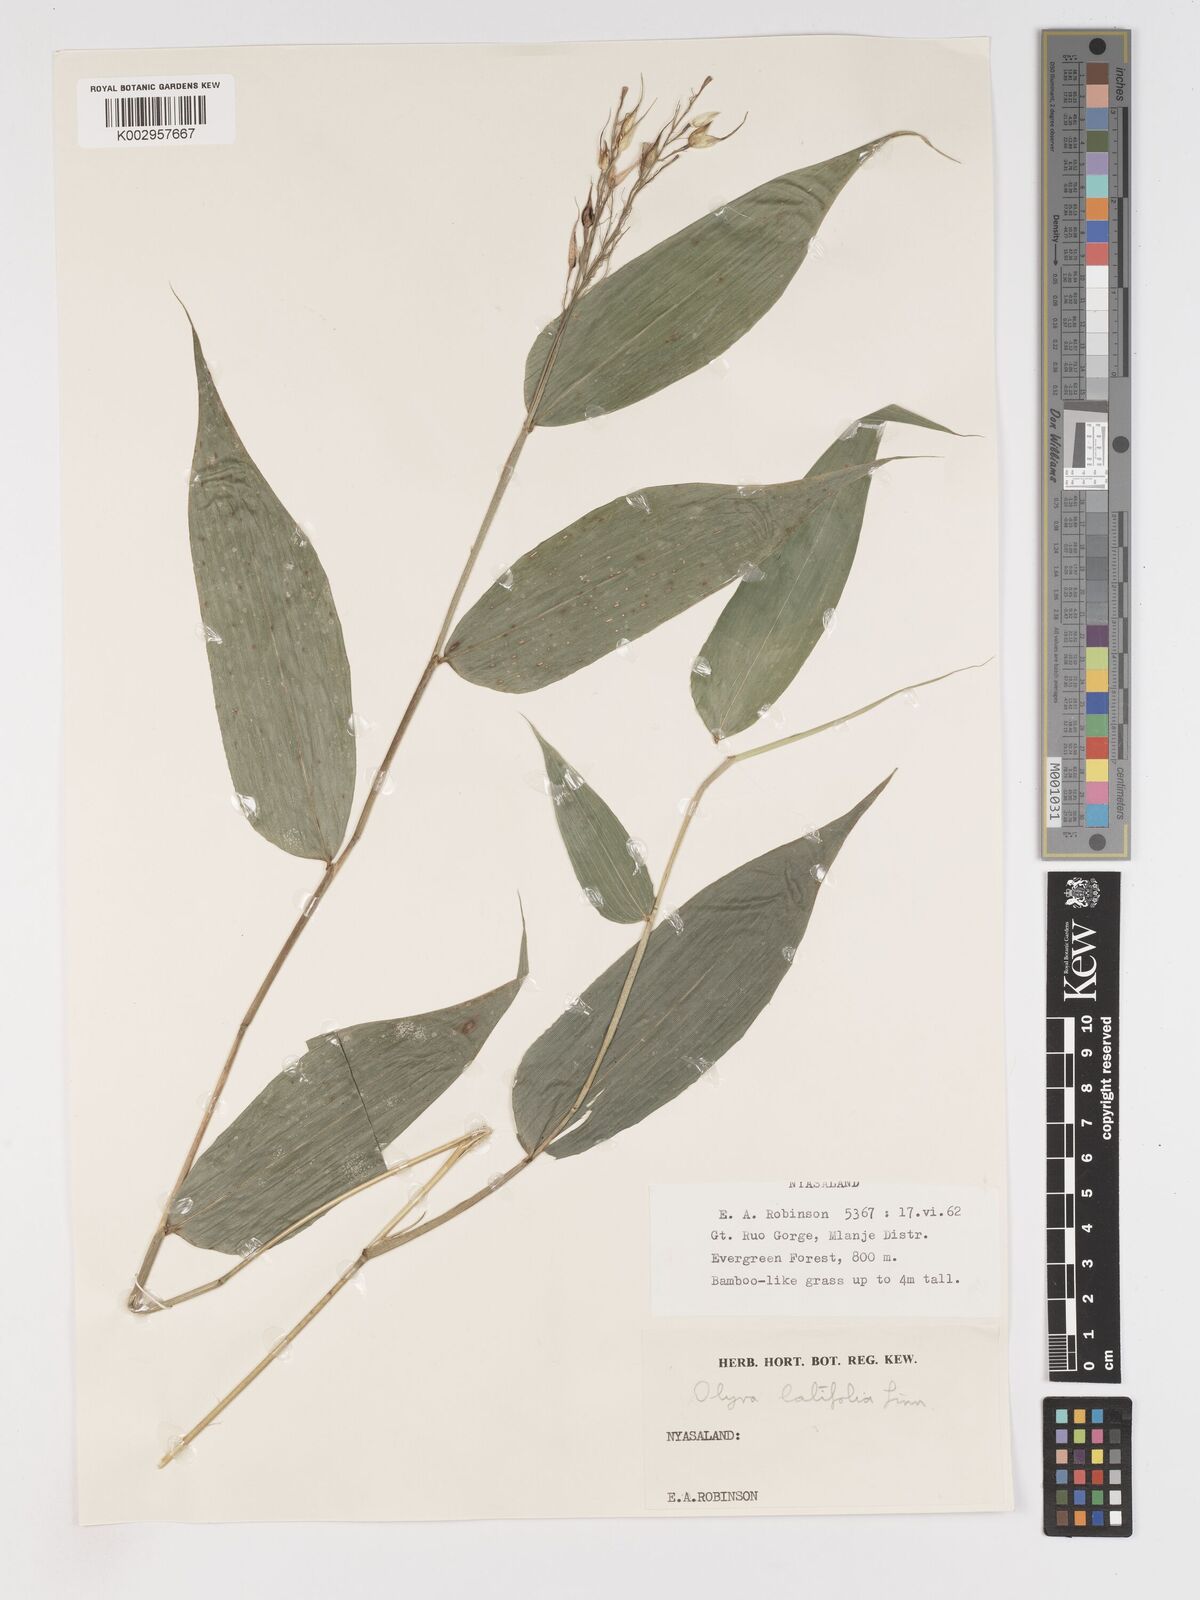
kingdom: Plantae
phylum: Tracheophyta
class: Liliopsida
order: Poales
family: Poaceae
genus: Olyra
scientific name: Olyra latifolia
